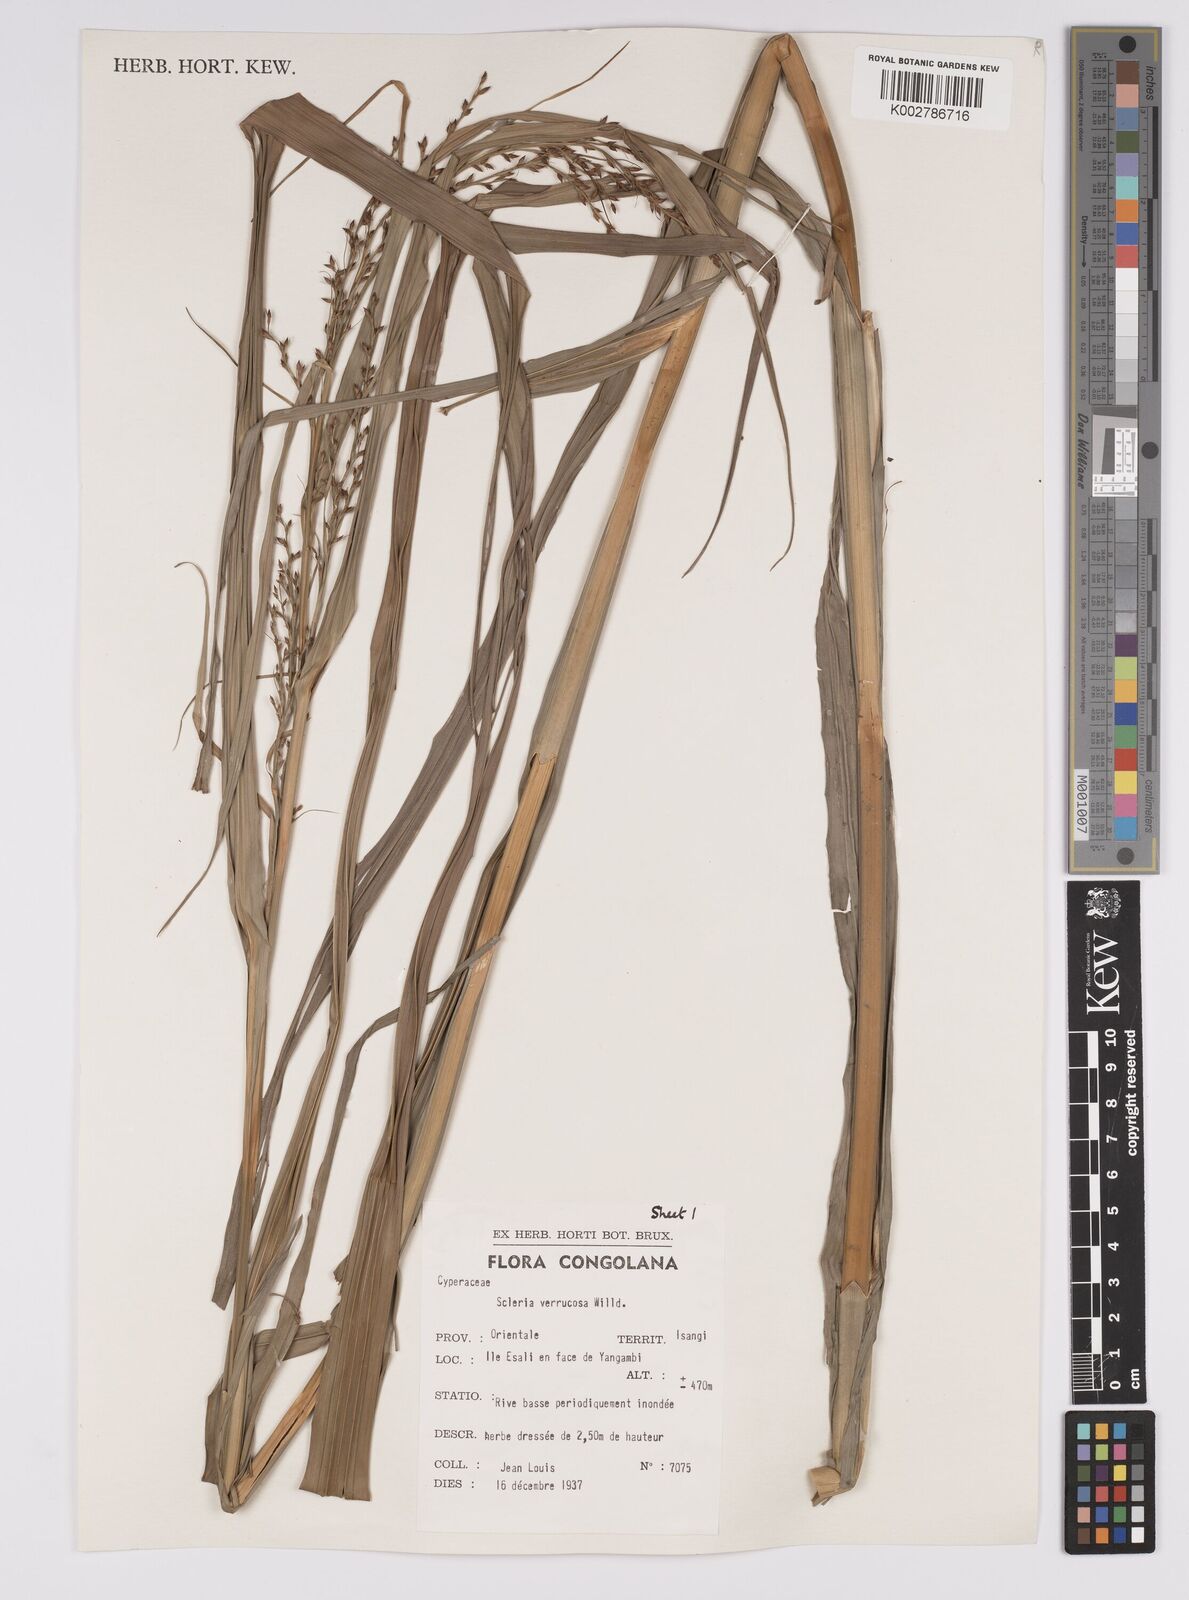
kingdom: Plantae
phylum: Tracheophyta
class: Liliopsida
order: Poales
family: Cyperaceae
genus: Scleria
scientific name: Scleria verrucosa
